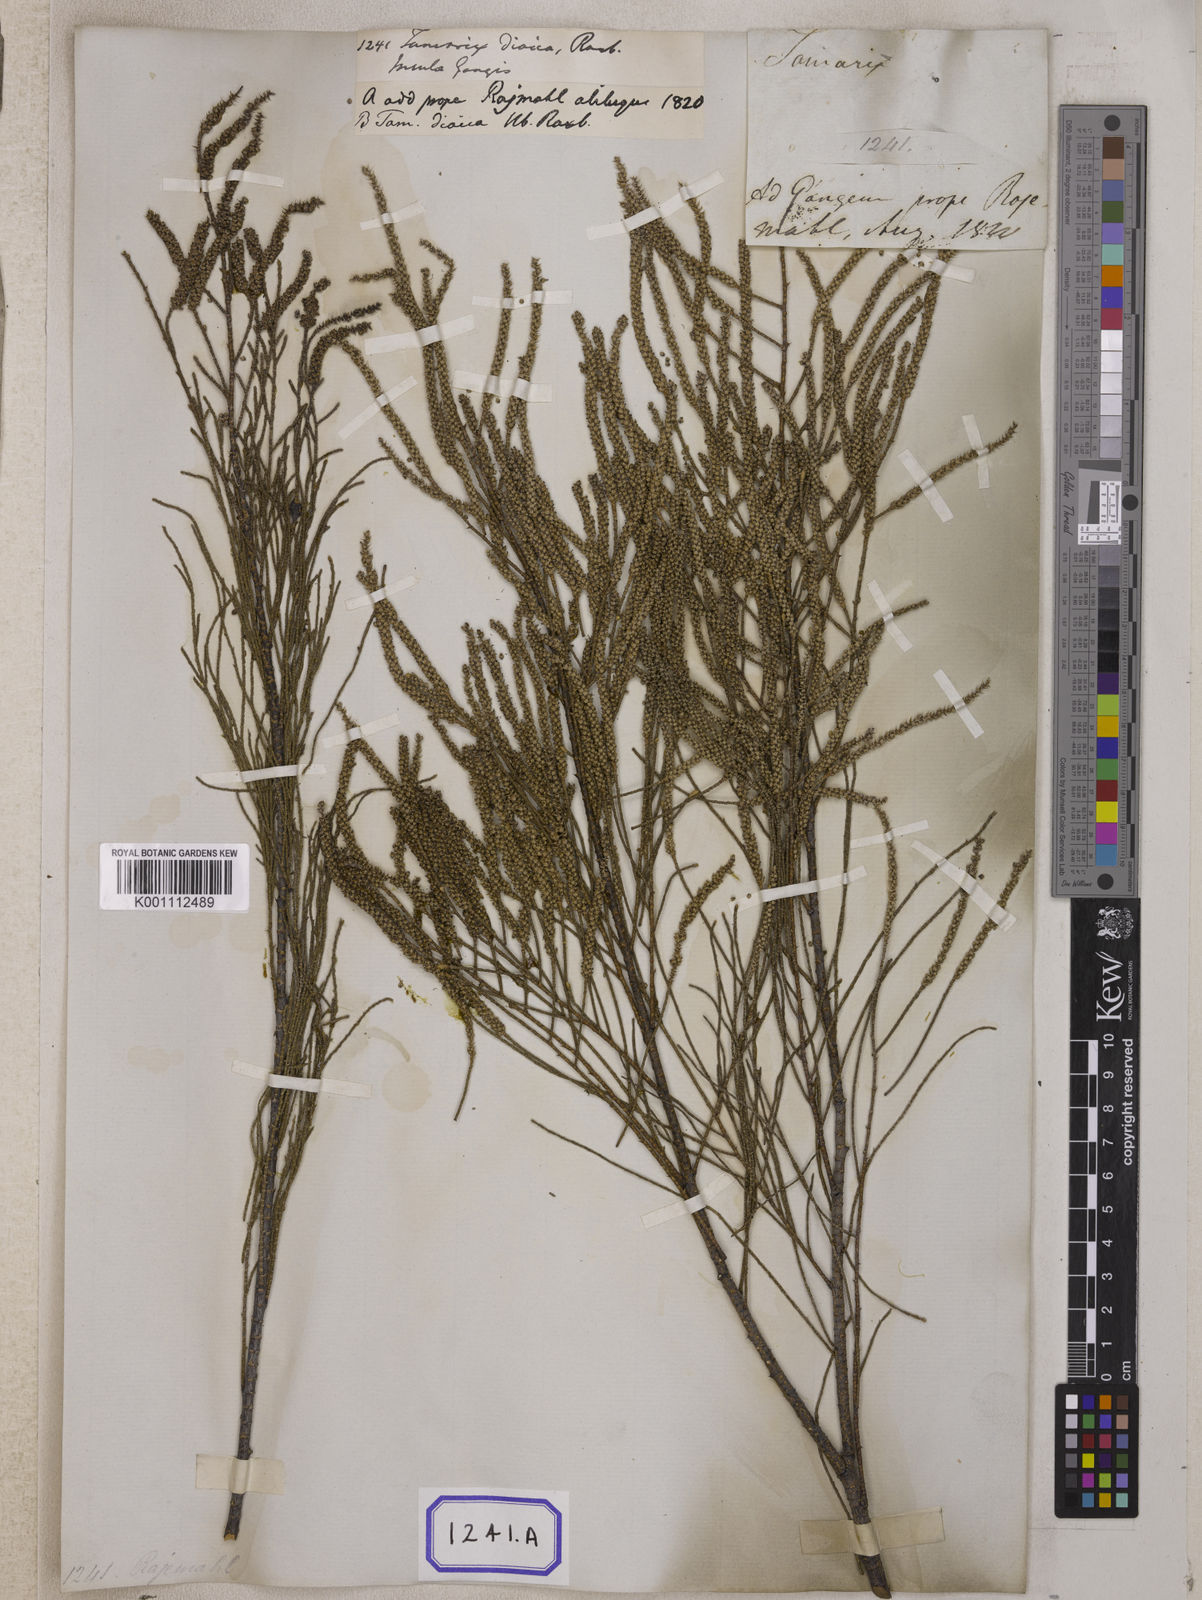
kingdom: Plantae
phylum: Tracheophyta
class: Magnoliopsida
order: Caryophyllales
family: Tamaricaceae
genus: Tamarix
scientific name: Tamarix
